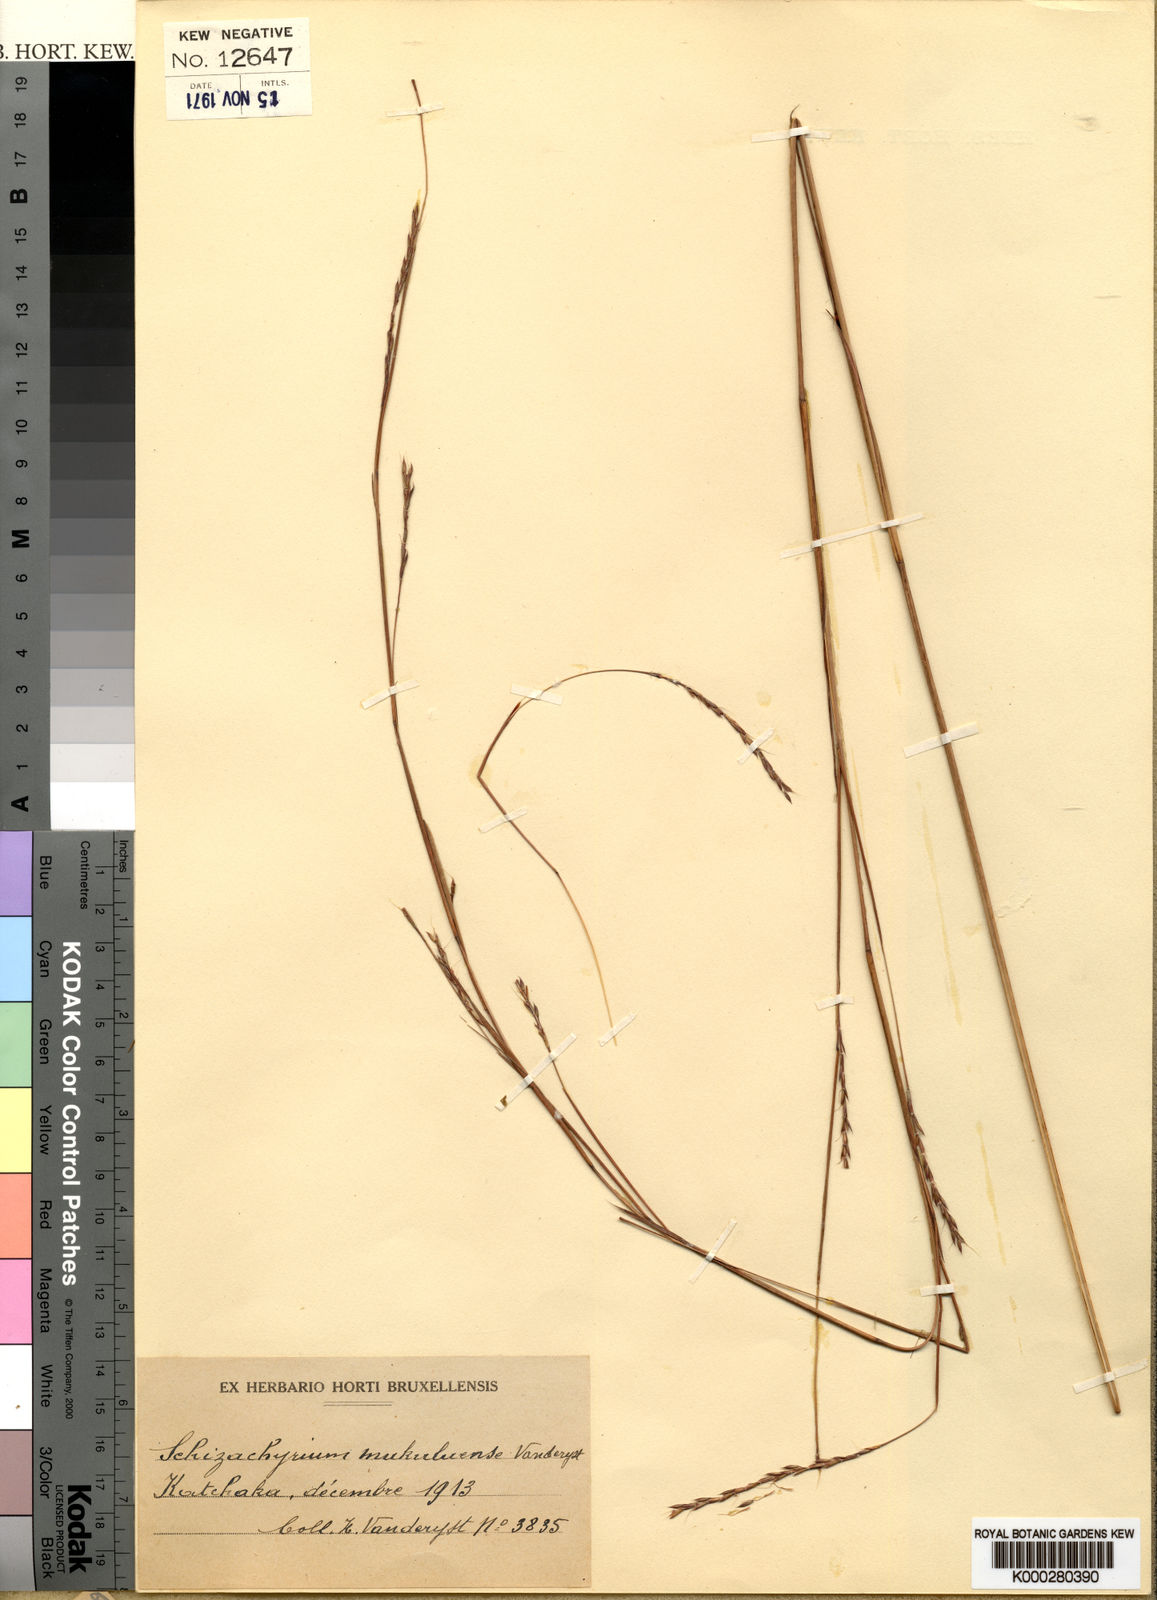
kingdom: Plantae
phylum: Tracheophyta
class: Liliopsida
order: Poales
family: Poaceae
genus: Schizachyrium
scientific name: Schizachyrium
